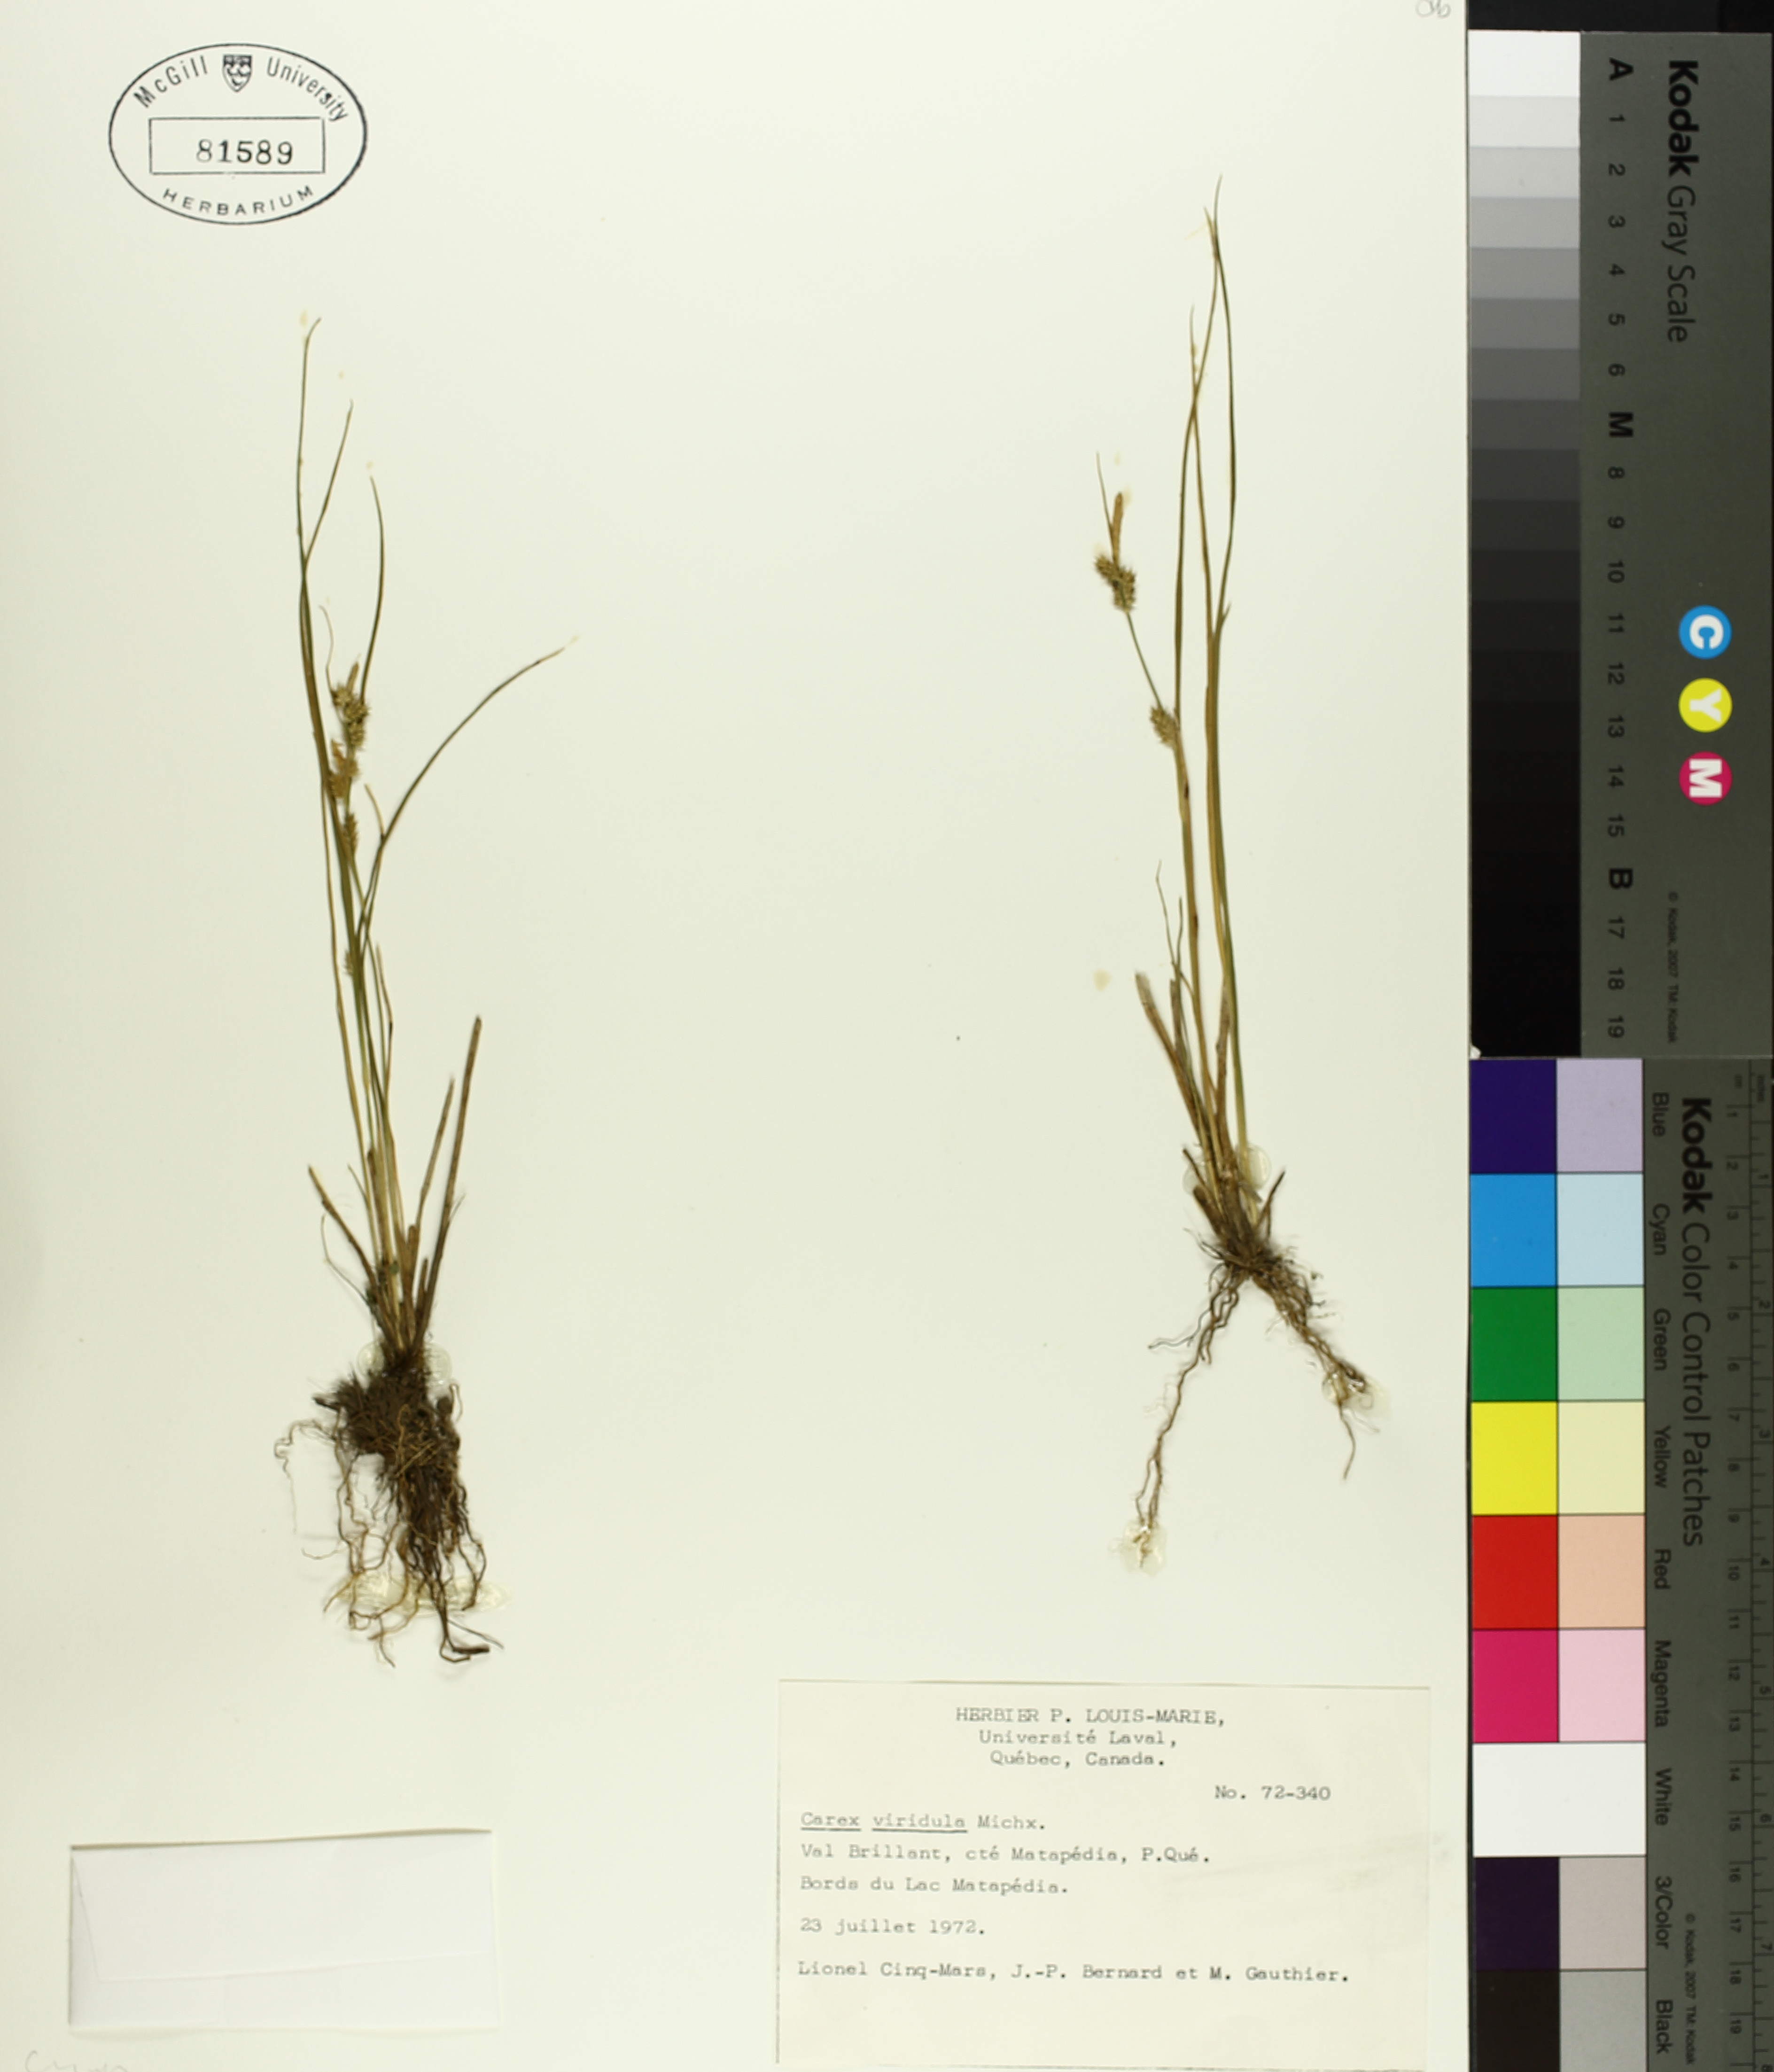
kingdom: Plantae
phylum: Tracheophyta
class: Liliopsida
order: Poales
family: Cyperaceae
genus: Carex
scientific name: Carex oederi
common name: Common & small-fruited yellow-sedge
